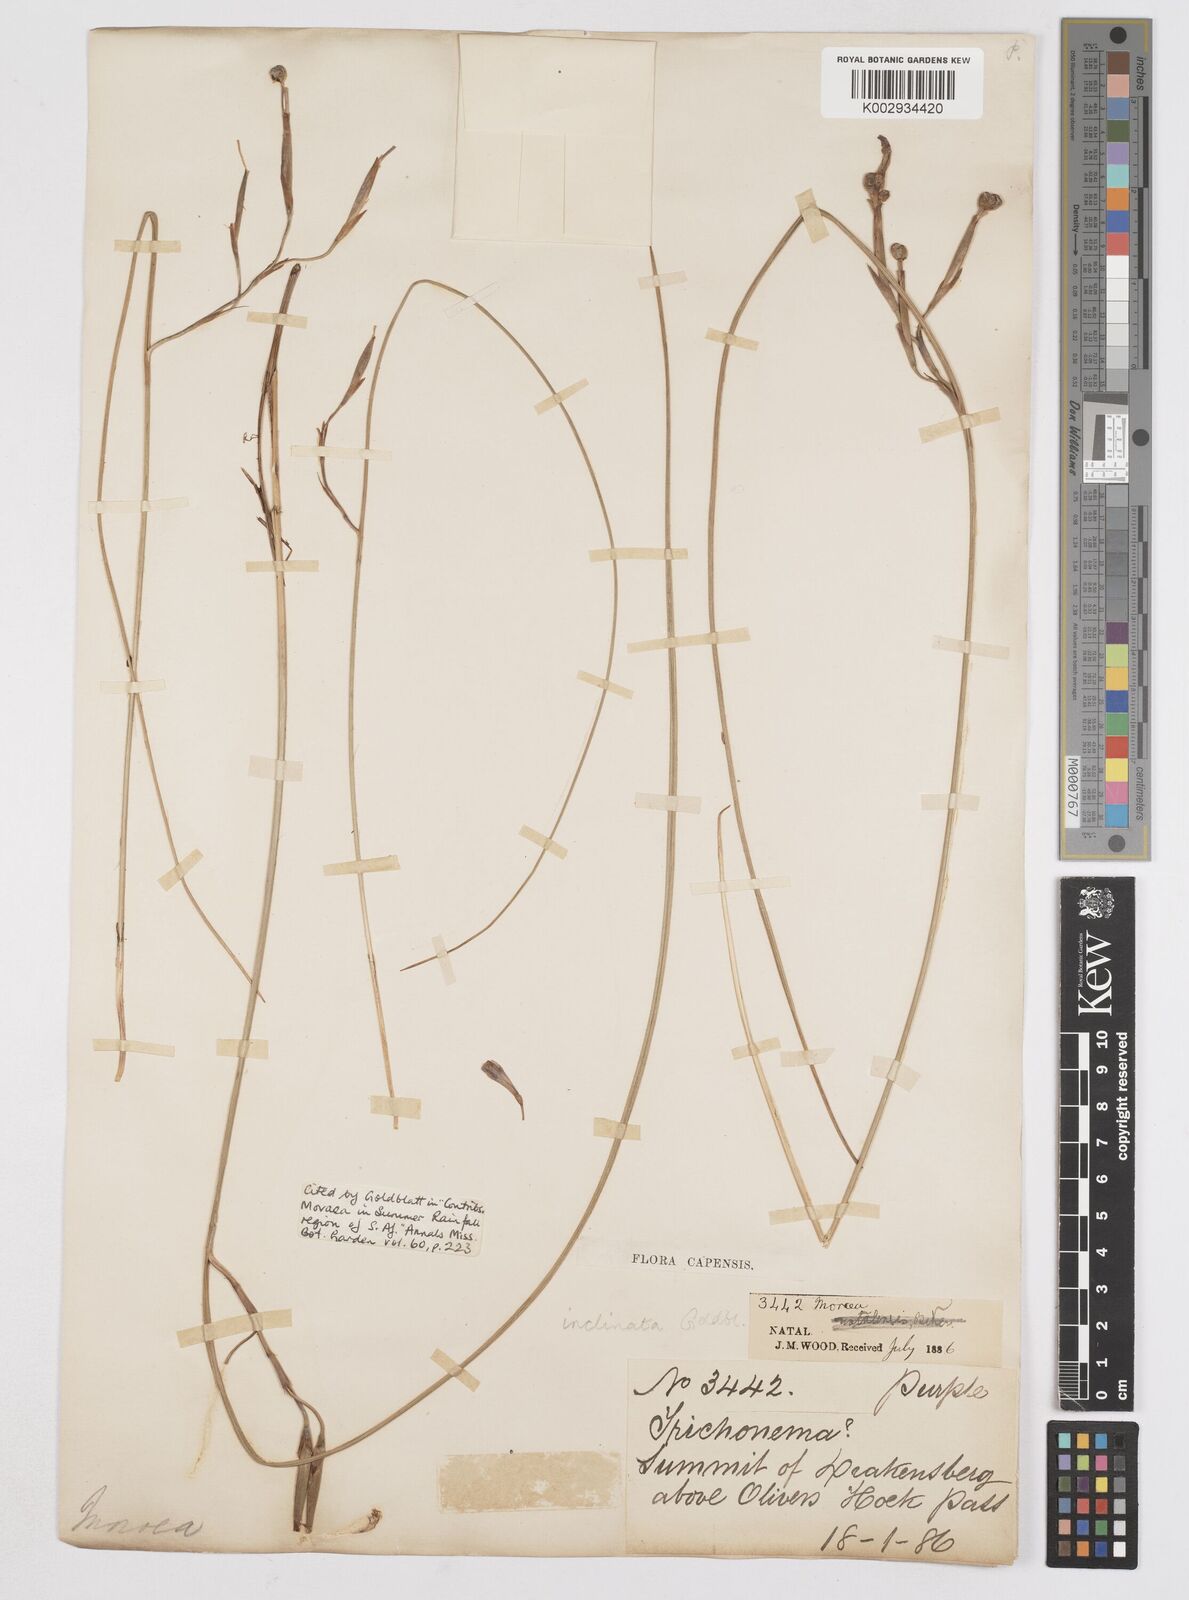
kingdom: Plantae
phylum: Tracheophyta
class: Liliopsida
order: Asparagales
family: Iridaceae
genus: Moraea
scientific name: Moraea inclinata
